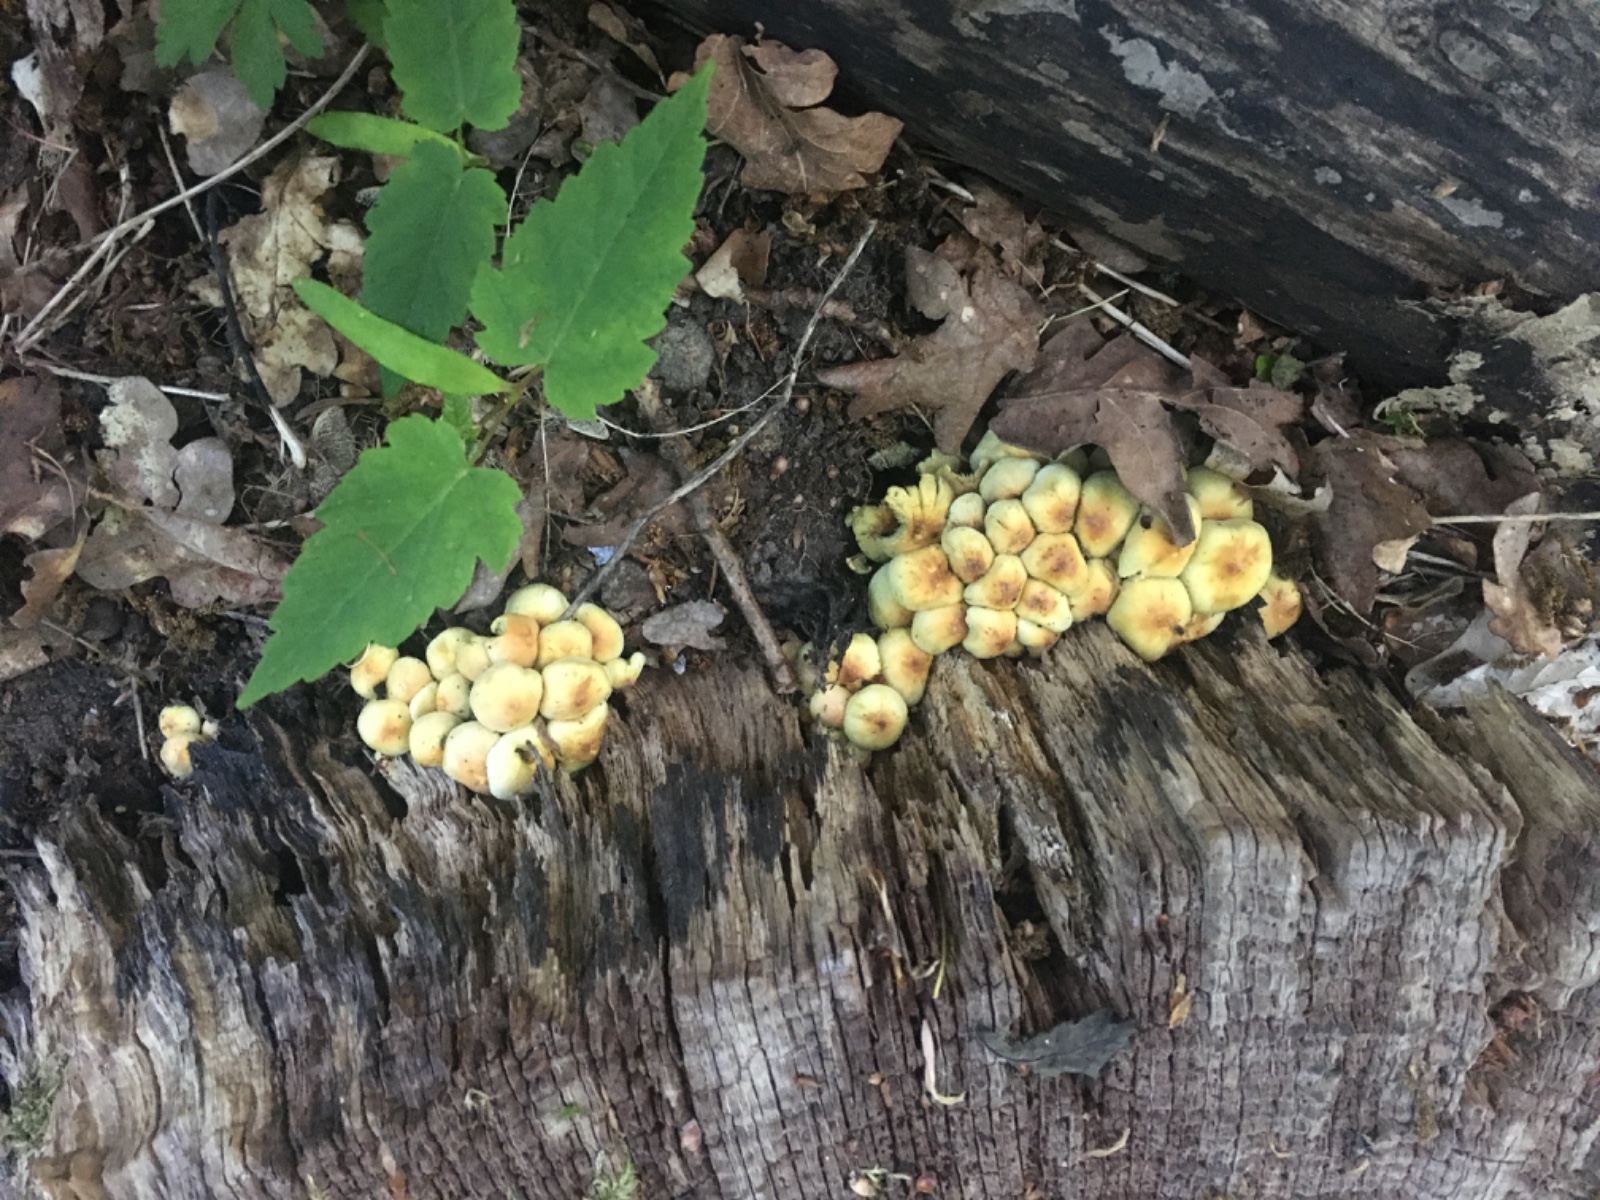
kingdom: Fungi
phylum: Basidiomycota
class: Agaricomycetes
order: Agaricales
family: Strophariaceae
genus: Hypholoma
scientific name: Hypholoma fasciculare
